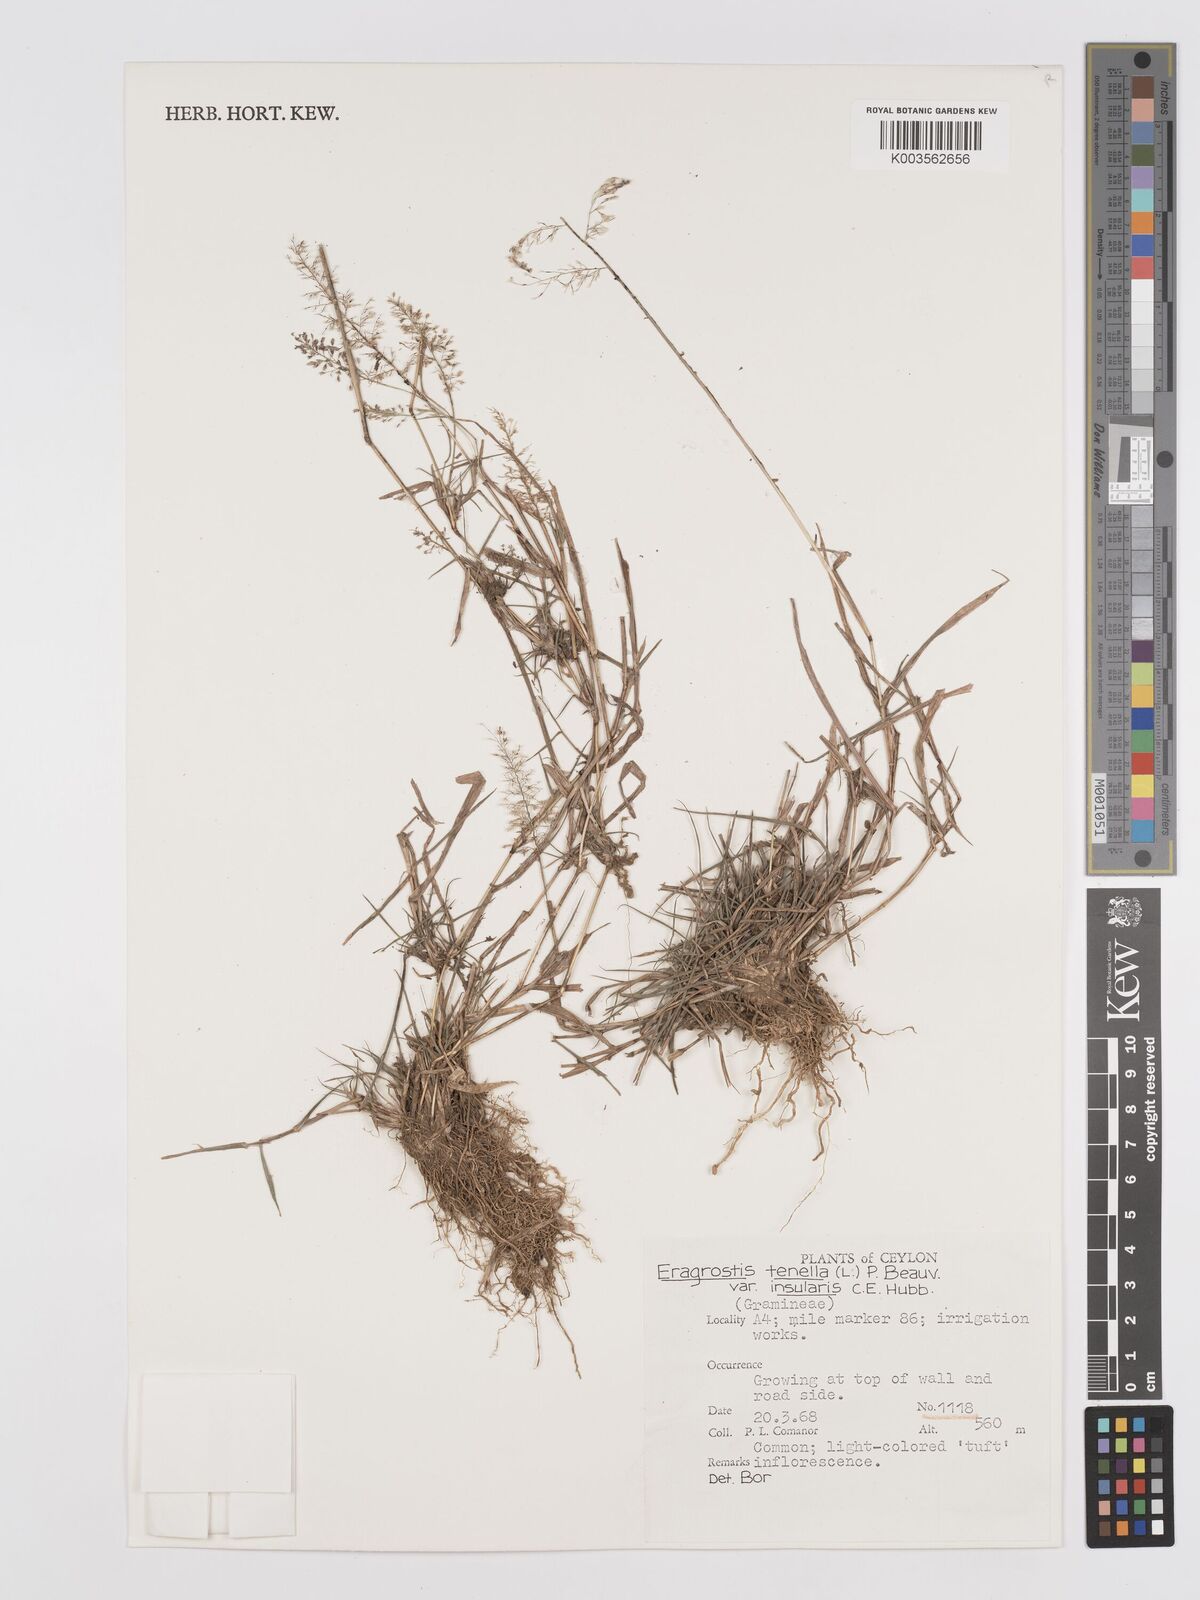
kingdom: Plantae
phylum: Tracheophyta
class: Liliopsida
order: Poales
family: Poaceae
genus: Eragrostis
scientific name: Eragrostis tenella
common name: Japanese lovegrass
